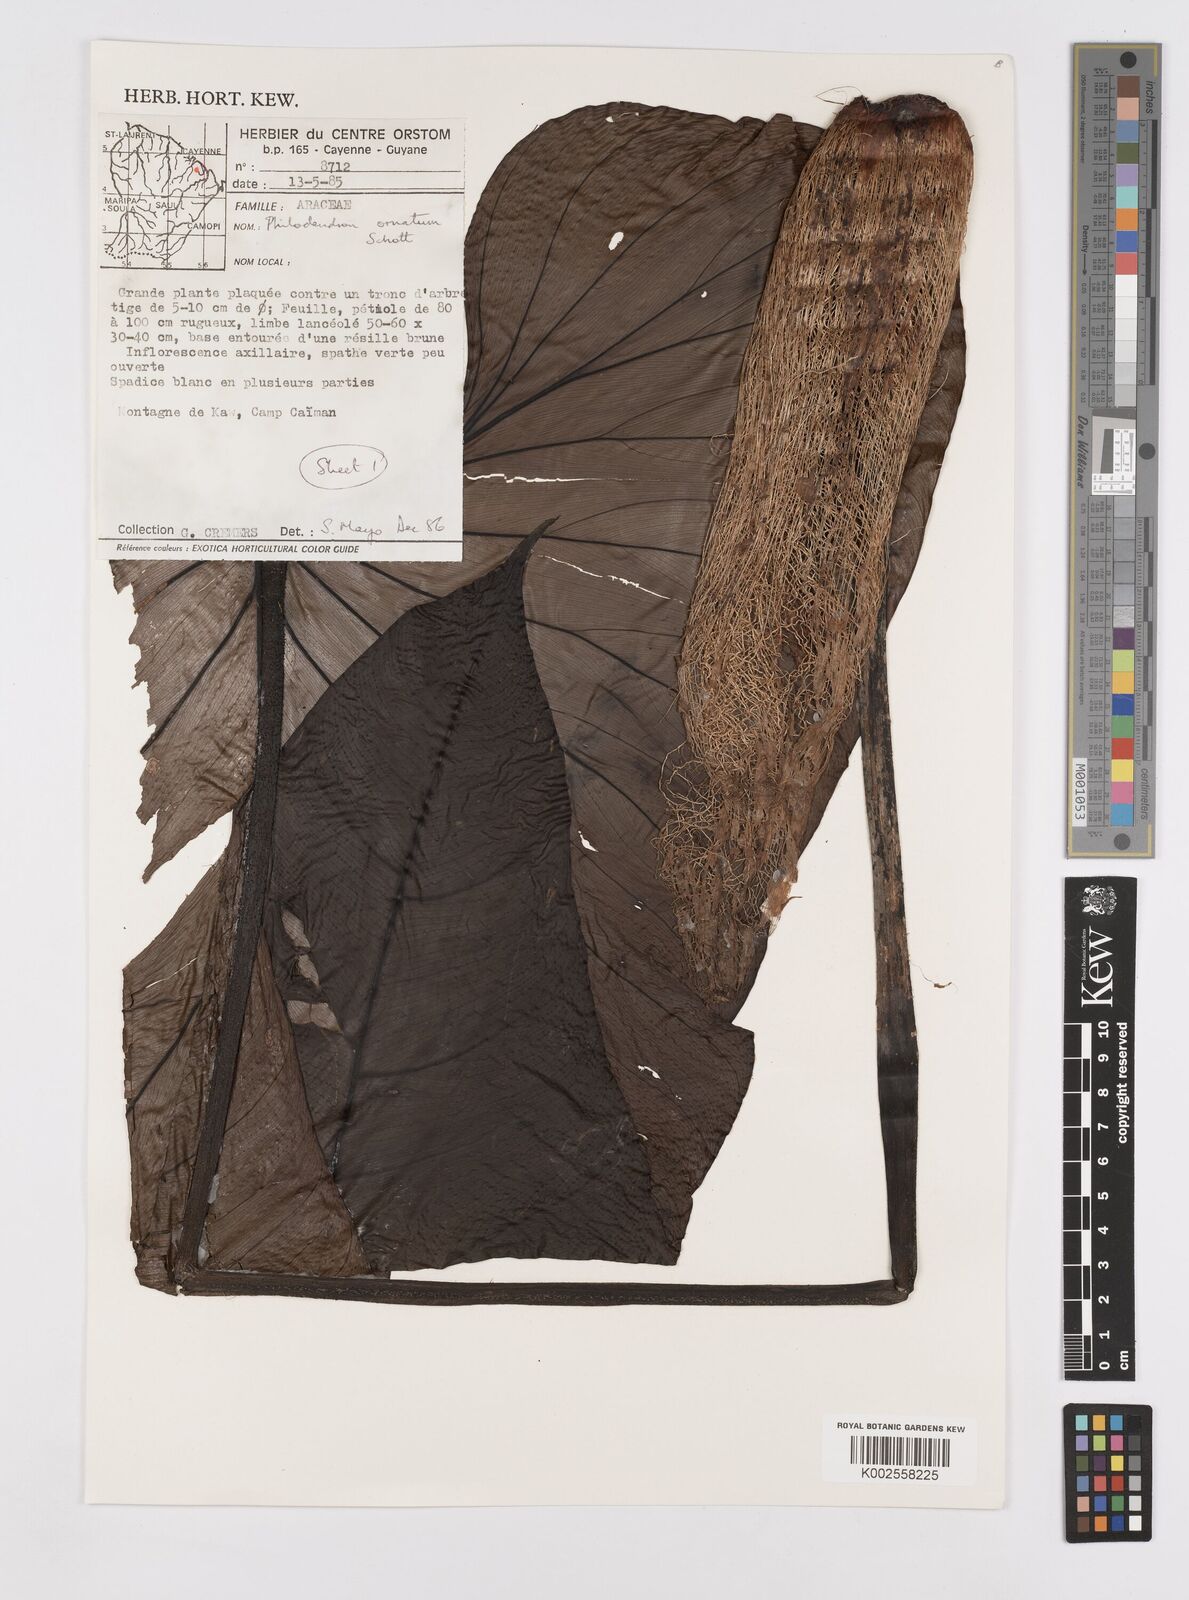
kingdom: Plantae
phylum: Tracheophyta
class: Liliopsida
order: Alismatales
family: Araceae
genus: Philodendron
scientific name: Philodendron ornatum
